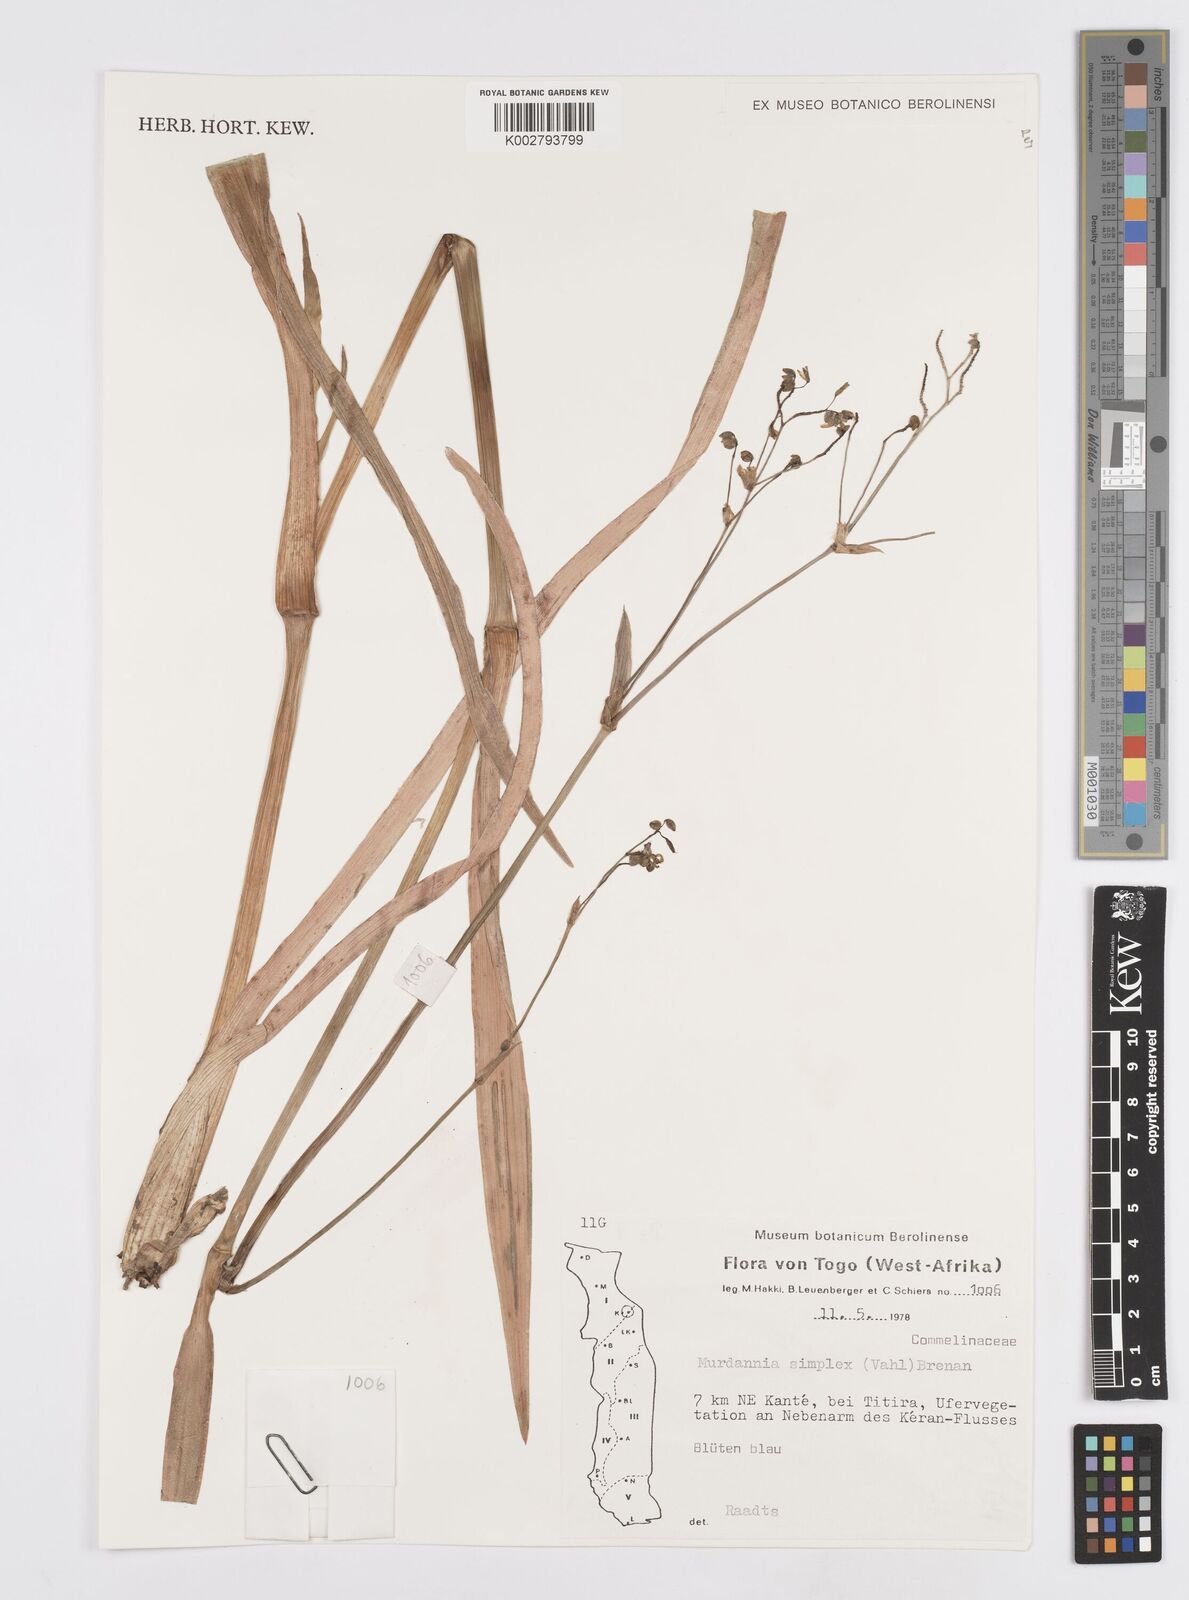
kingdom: Plantae
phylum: Tracheophyta
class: Liliopsida
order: Commelinales
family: Commelinaceae
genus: Murdannia
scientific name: Murdannia simplex
